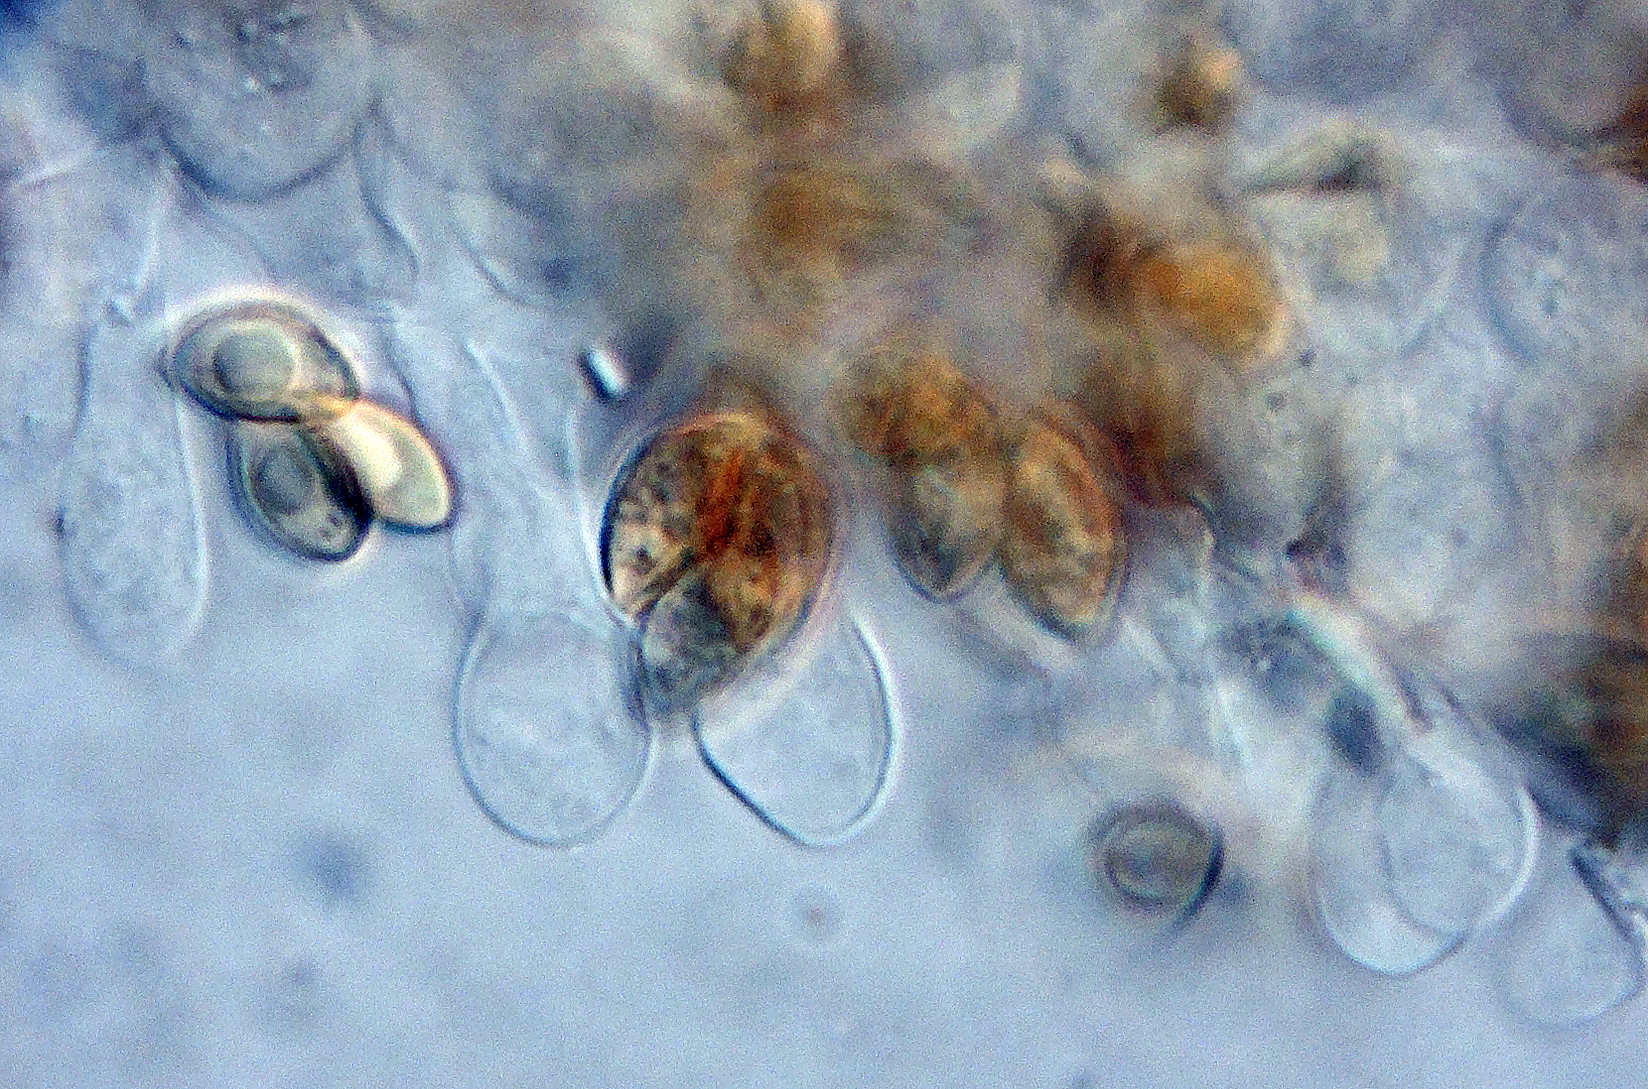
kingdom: Fungi
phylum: Basidiomycota
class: Agaricomycetes
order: Agaricales
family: Hymenogastraceae
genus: Galerina
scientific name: Galerina
